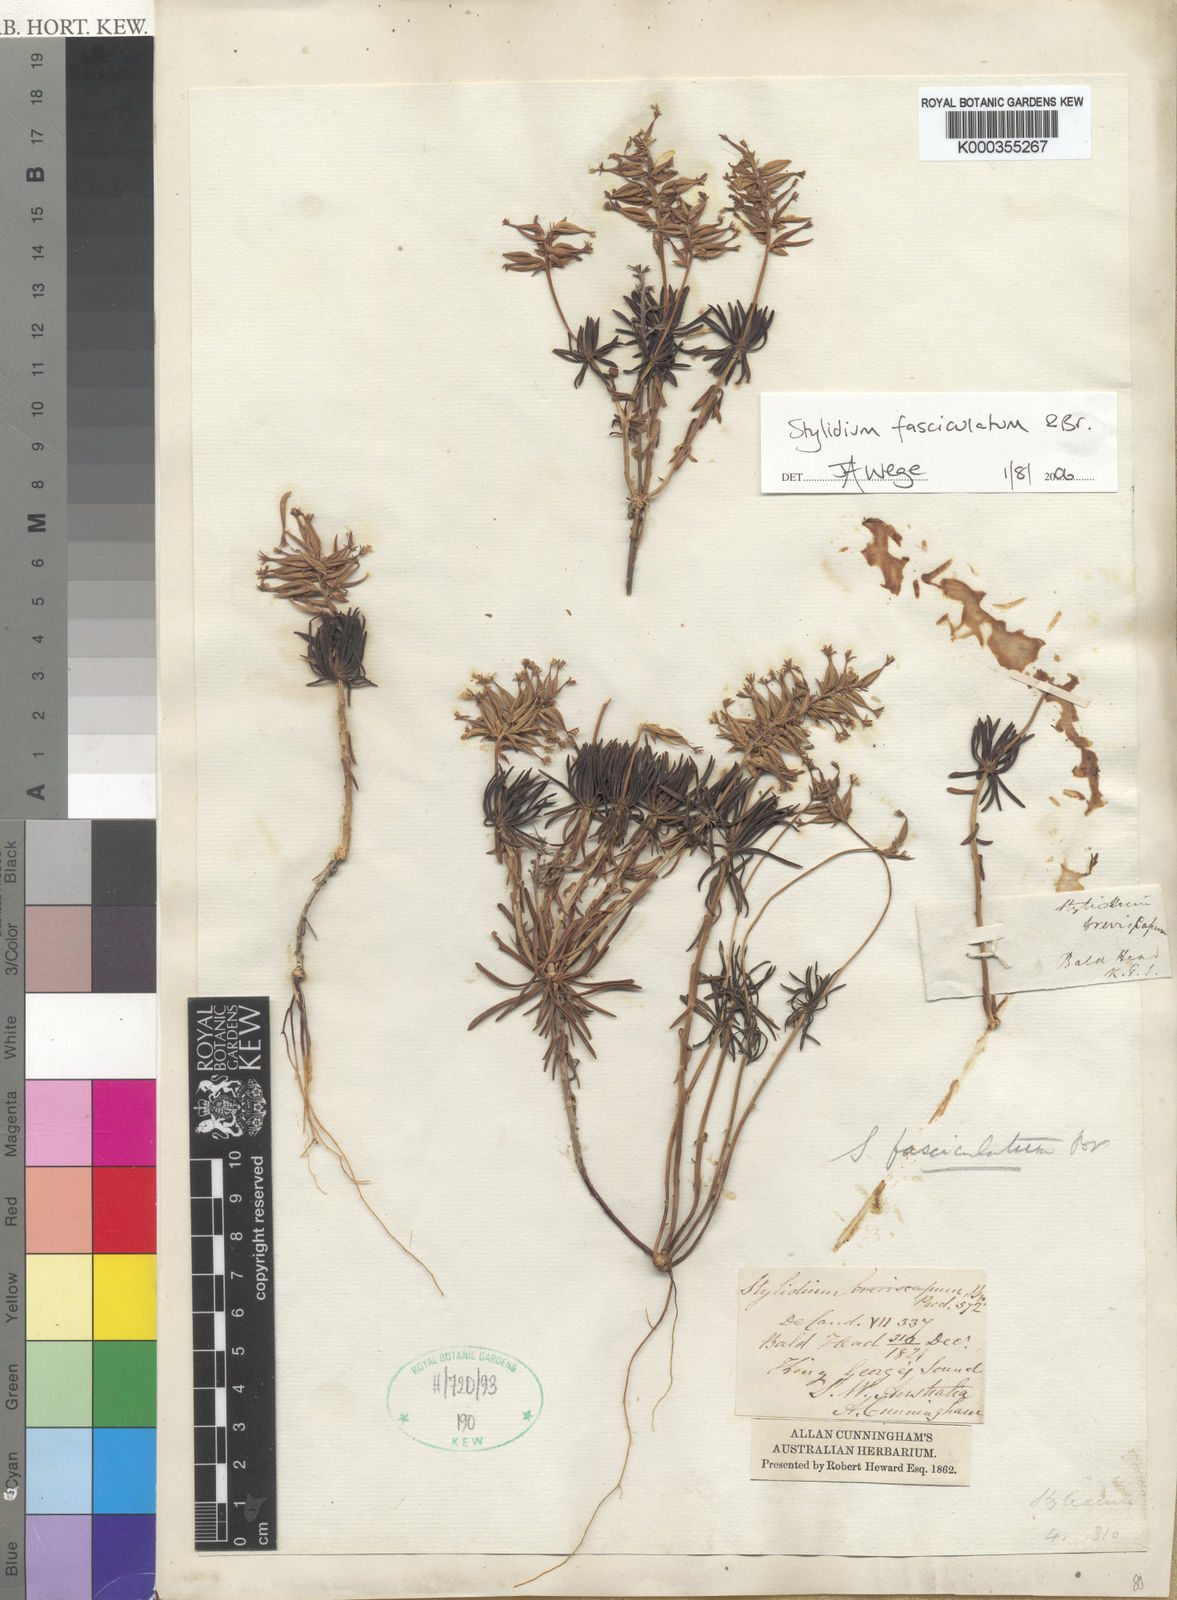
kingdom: Plantae
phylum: Tracheophyta
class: Magnoliopsida
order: Asterales
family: Stylidiaceae
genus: Stylidium
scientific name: Stylidium fasciculatum
